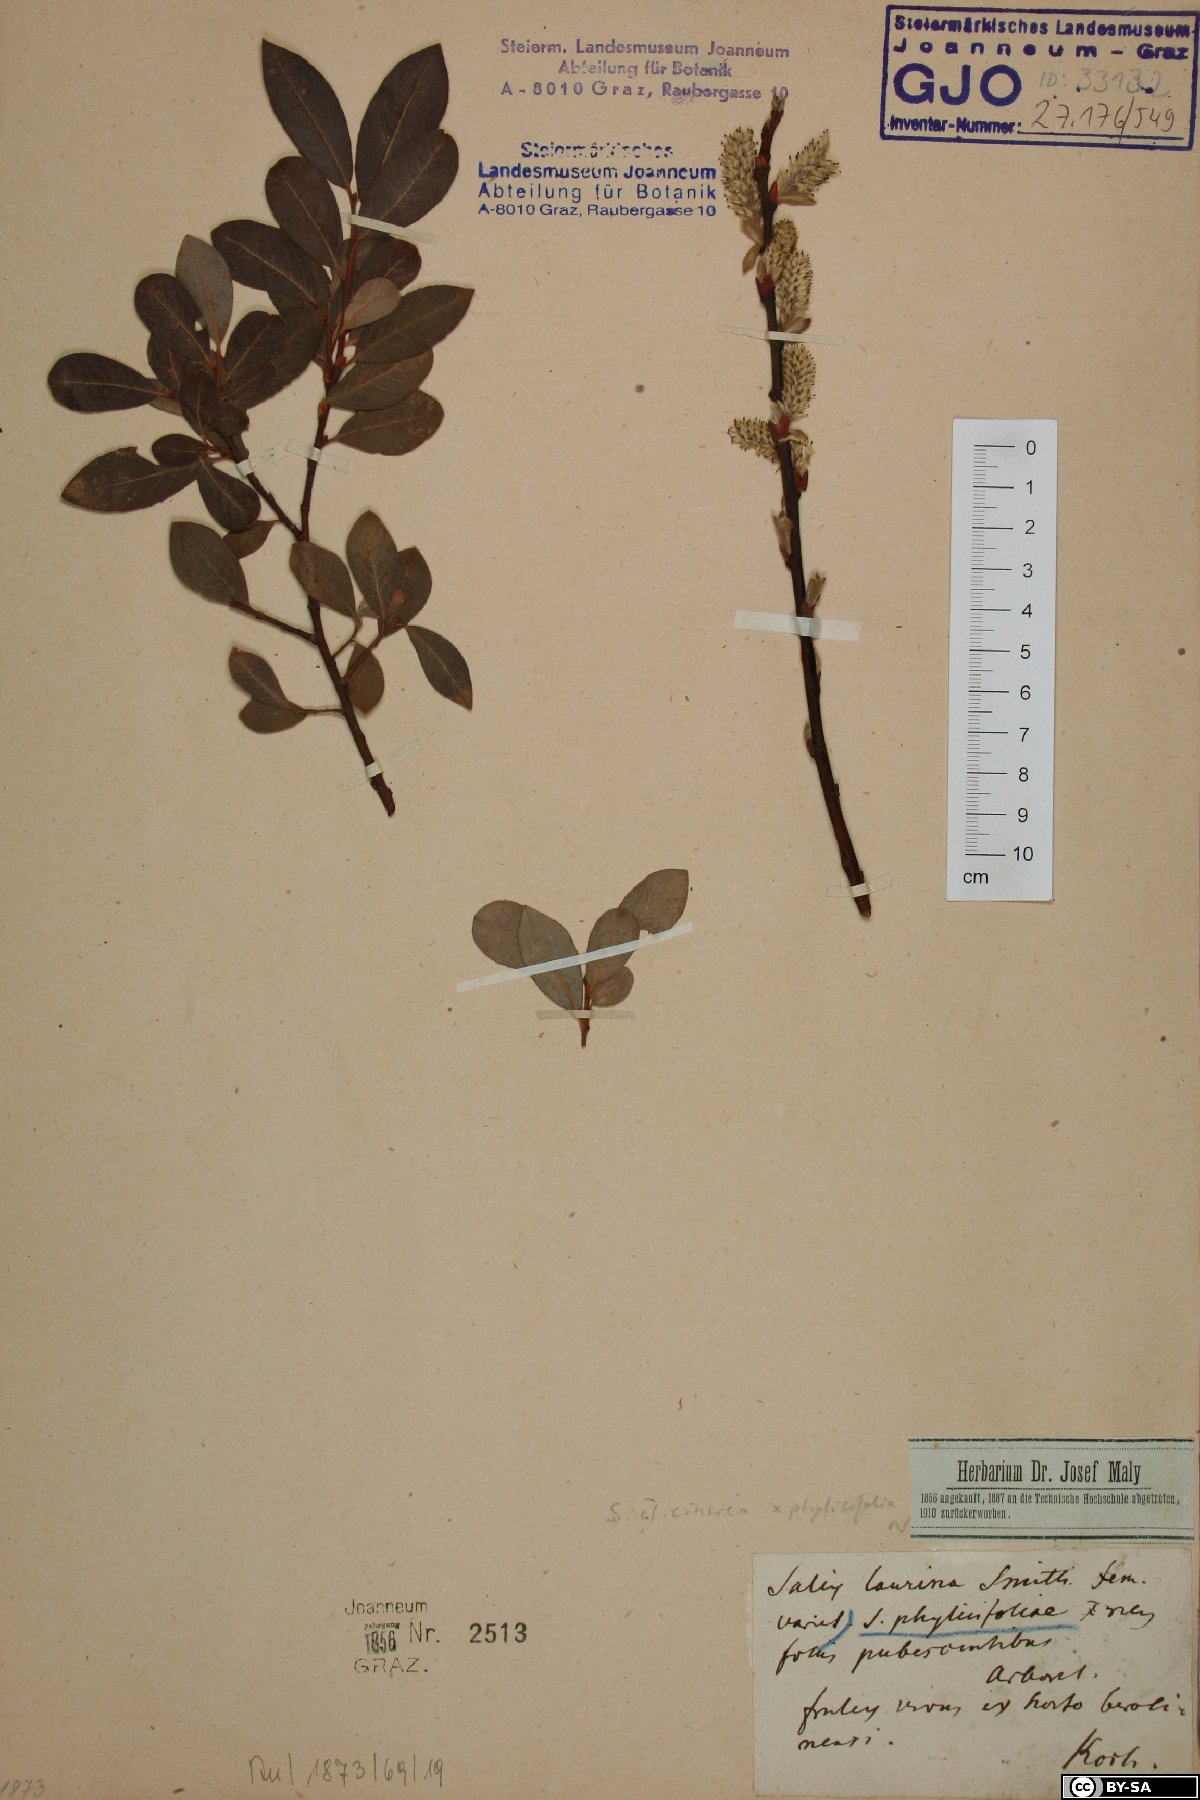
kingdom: Plantae
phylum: Tracheophyta
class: Magnoliopsida
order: Malpighiales
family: Salicaceae
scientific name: Salicaceae
